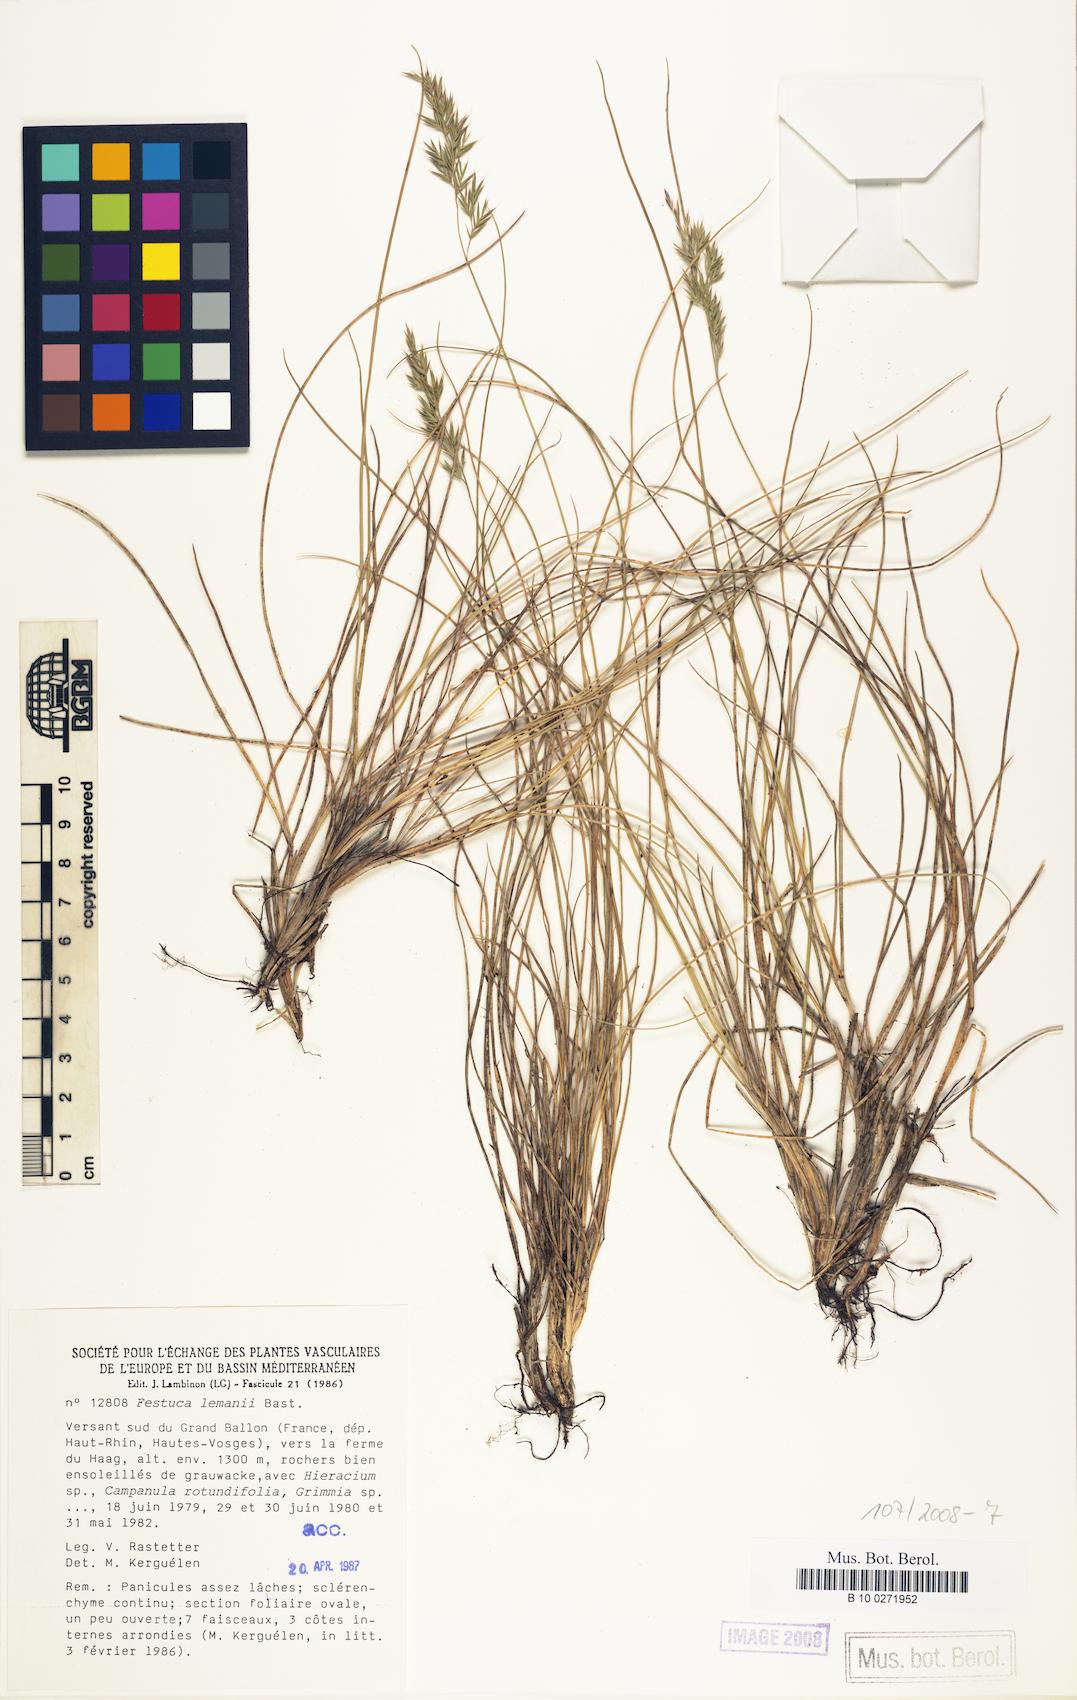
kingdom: Plantae
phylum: Tracheophyta
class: Liliopsida
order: Poales
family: Poaceae
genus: Festuca
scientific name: Festuca lemanii
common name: Confused fescue
